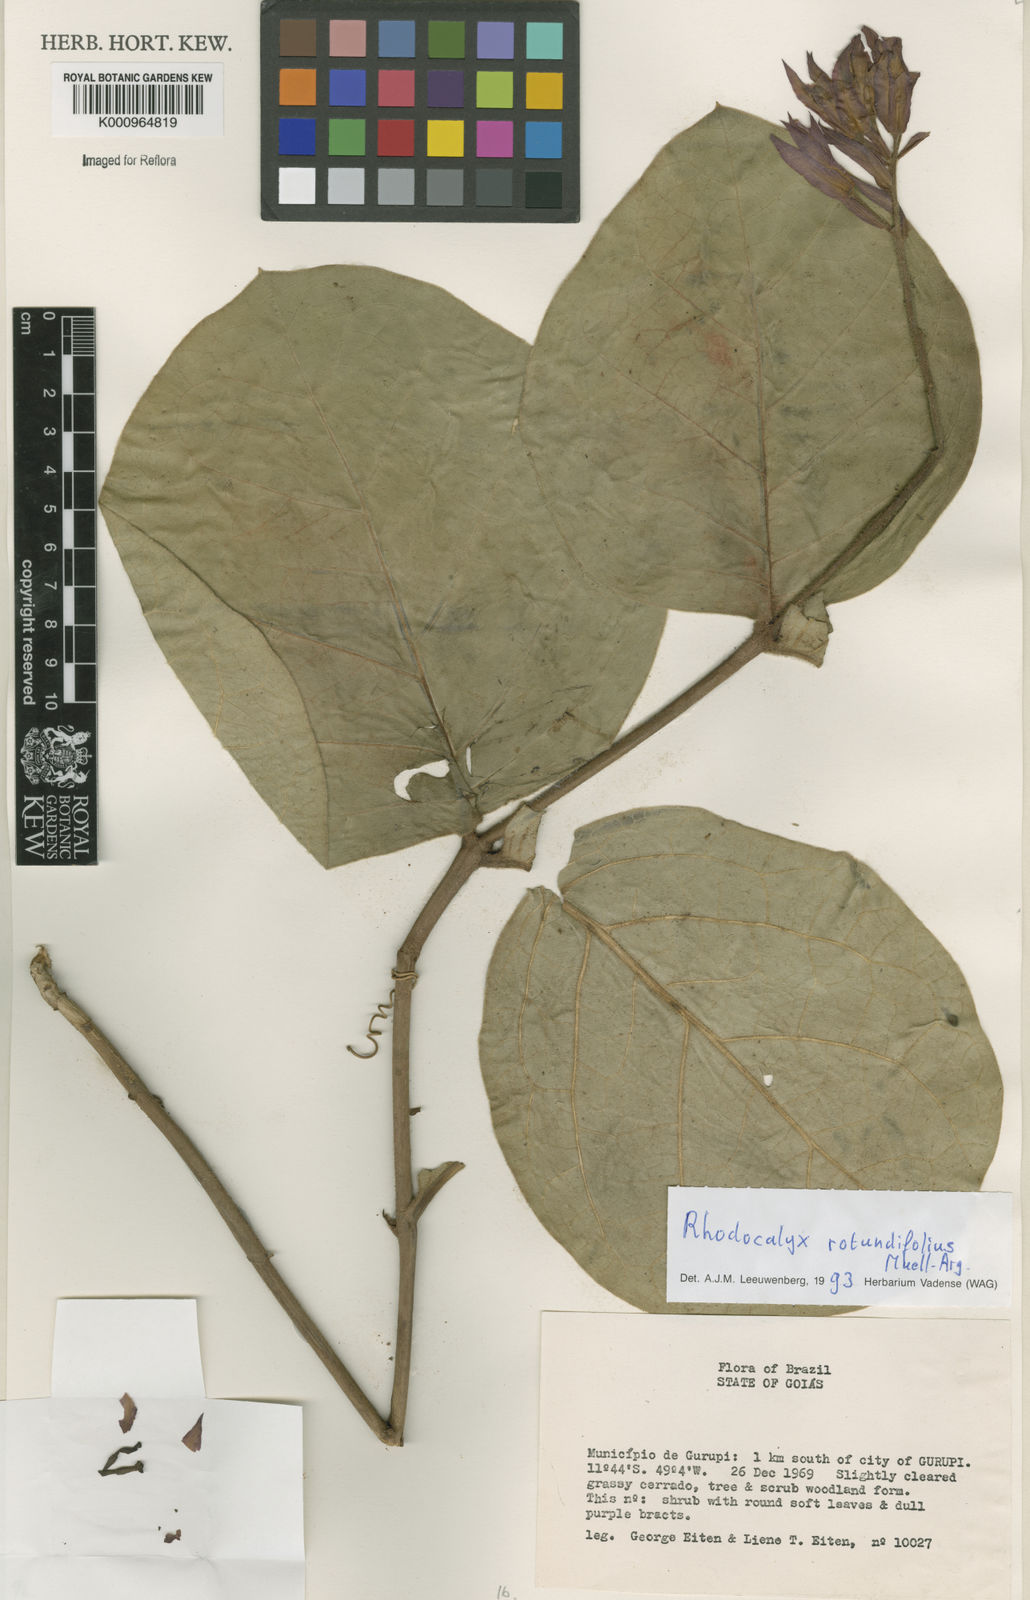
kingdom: Plantae
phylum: Tracheophyta
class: Magnoliopsida
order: Gentianales
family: Apocynaceae
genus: Rhodocalyx
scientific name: Rhodocalyx
